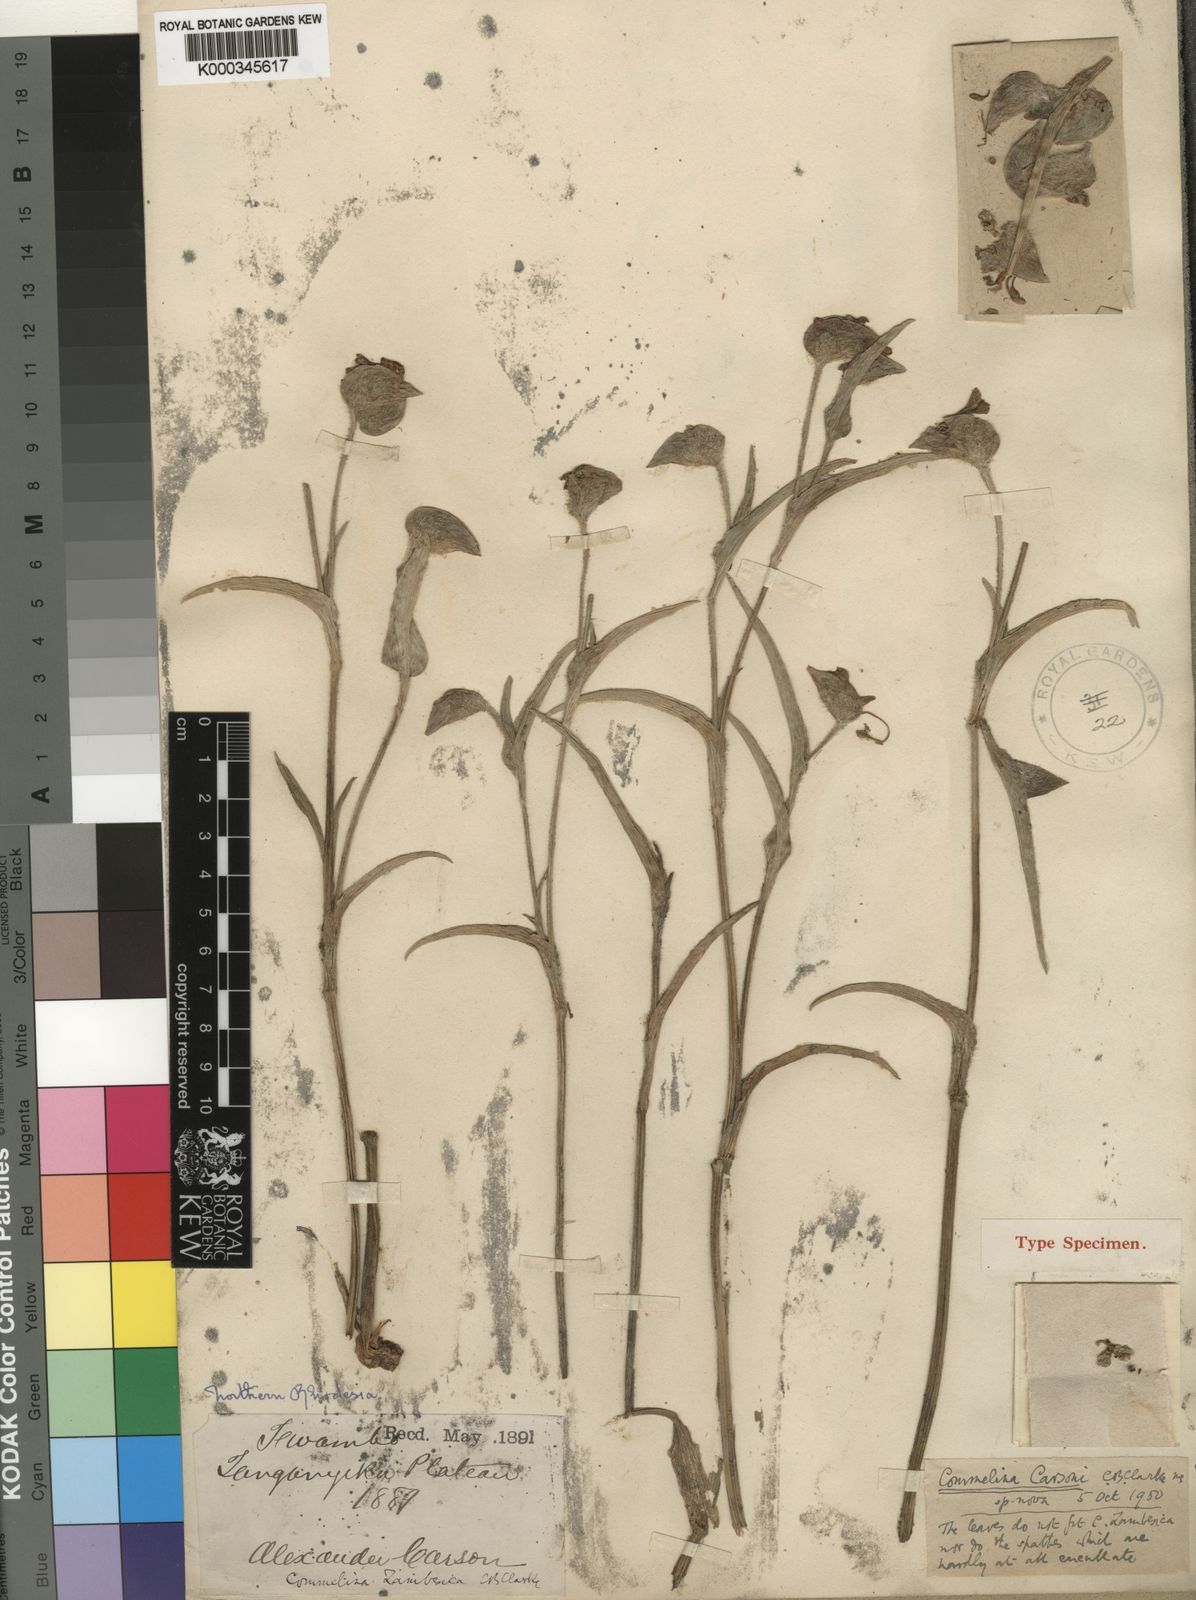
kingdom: Plantae
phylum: Tracheophyta
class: Liliopsida
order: Commelinales
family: Commelinaceae
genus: Commelina
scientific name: Commelina schweinfurthii
